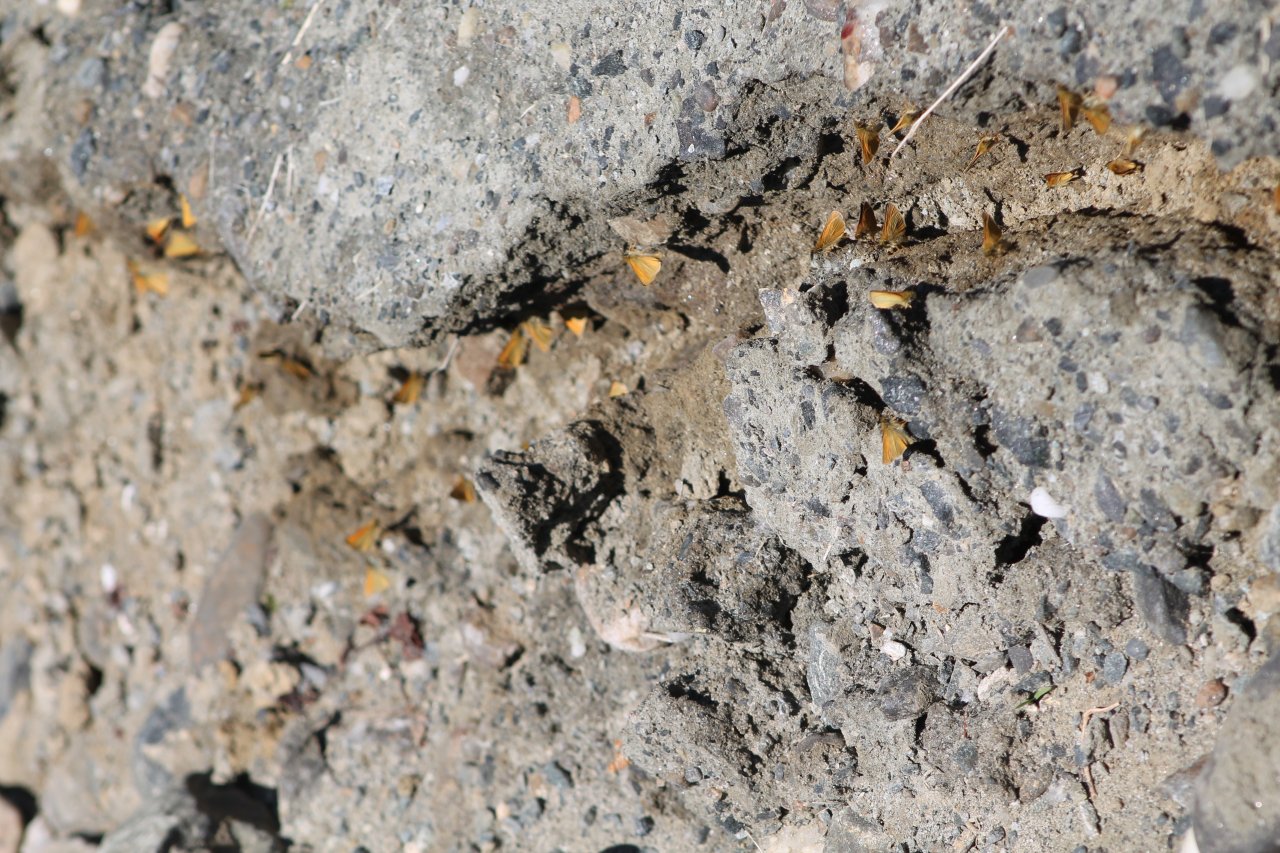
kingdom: Animalia
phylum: Arthropoda
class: Insecta
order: Lepidoptera
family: Hesperiidae
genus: Thymelicus
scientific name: Thymelicus lineola
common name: European Skipper
